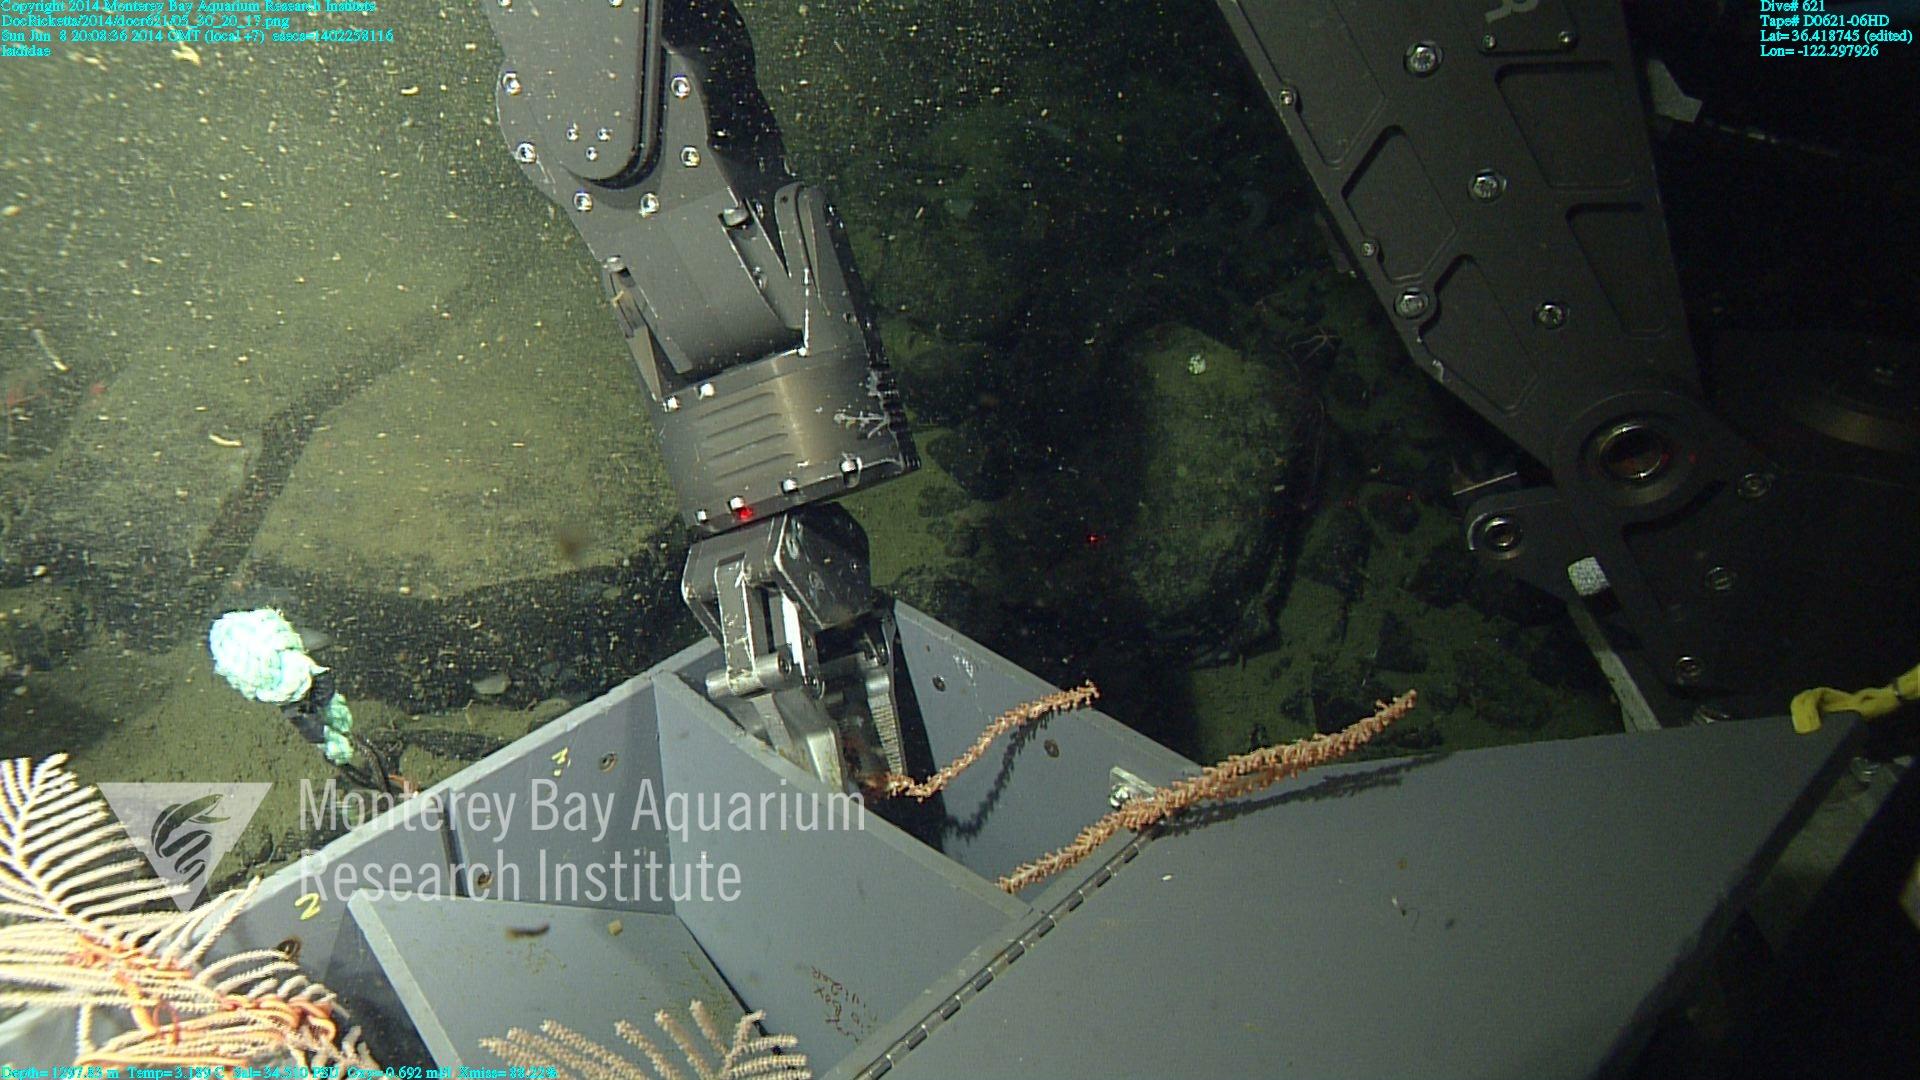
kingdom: Animalia
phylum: Cnidaria
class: Anthozoa
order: Scleralcyonacea
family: Keratoisididae
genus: Isidella
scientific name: Isidella
